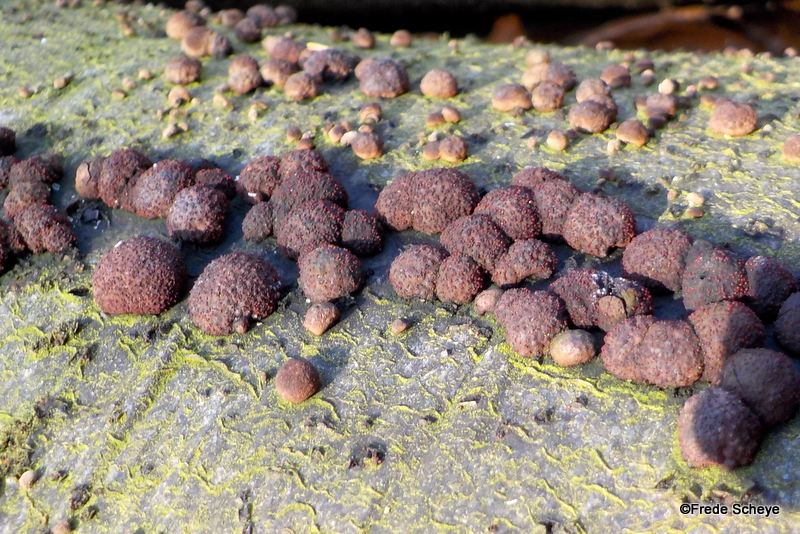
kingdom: Fungi
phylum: Ascomycota
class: Sordariomycetes
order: Xylariales
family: Hypoxylaceae
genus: Hypoxylon
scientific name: Hypoxylon fragiforme
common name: kuljordbær
